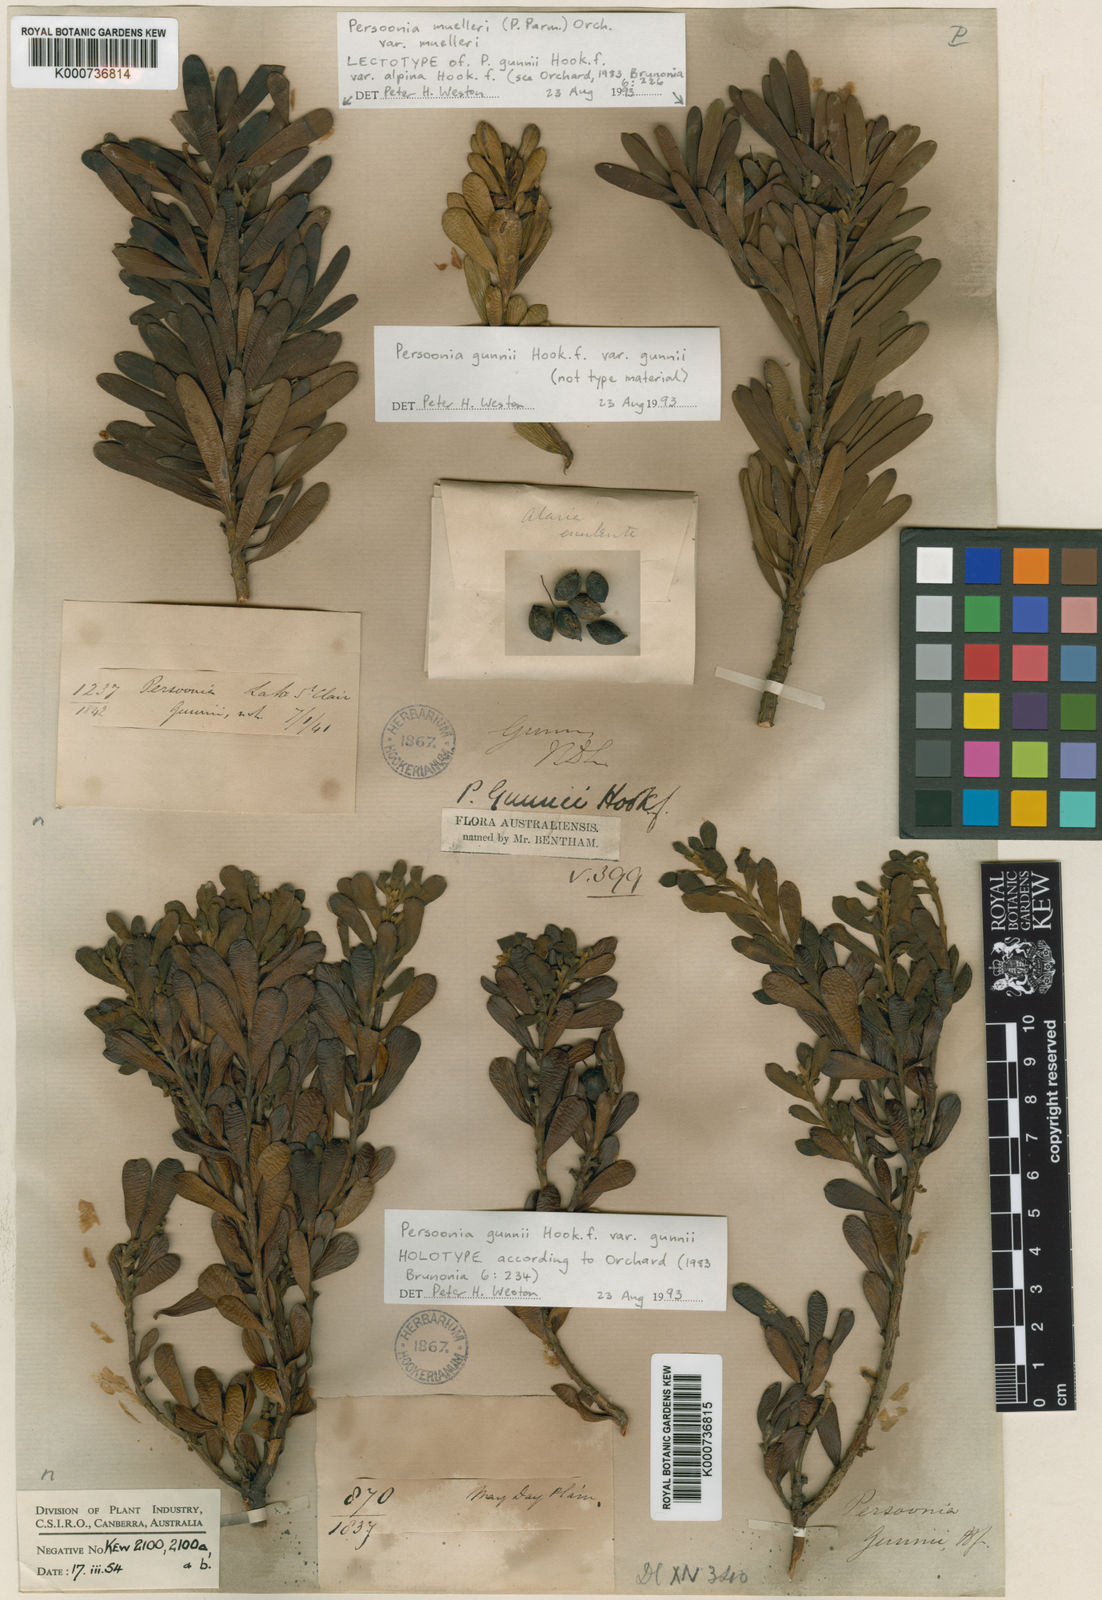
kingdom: Plantae
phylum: Tracheophyta
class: Magnoliopsida
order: Proteales
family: Proteaceae
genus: Persoonia
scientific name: Persoonia gunnii
